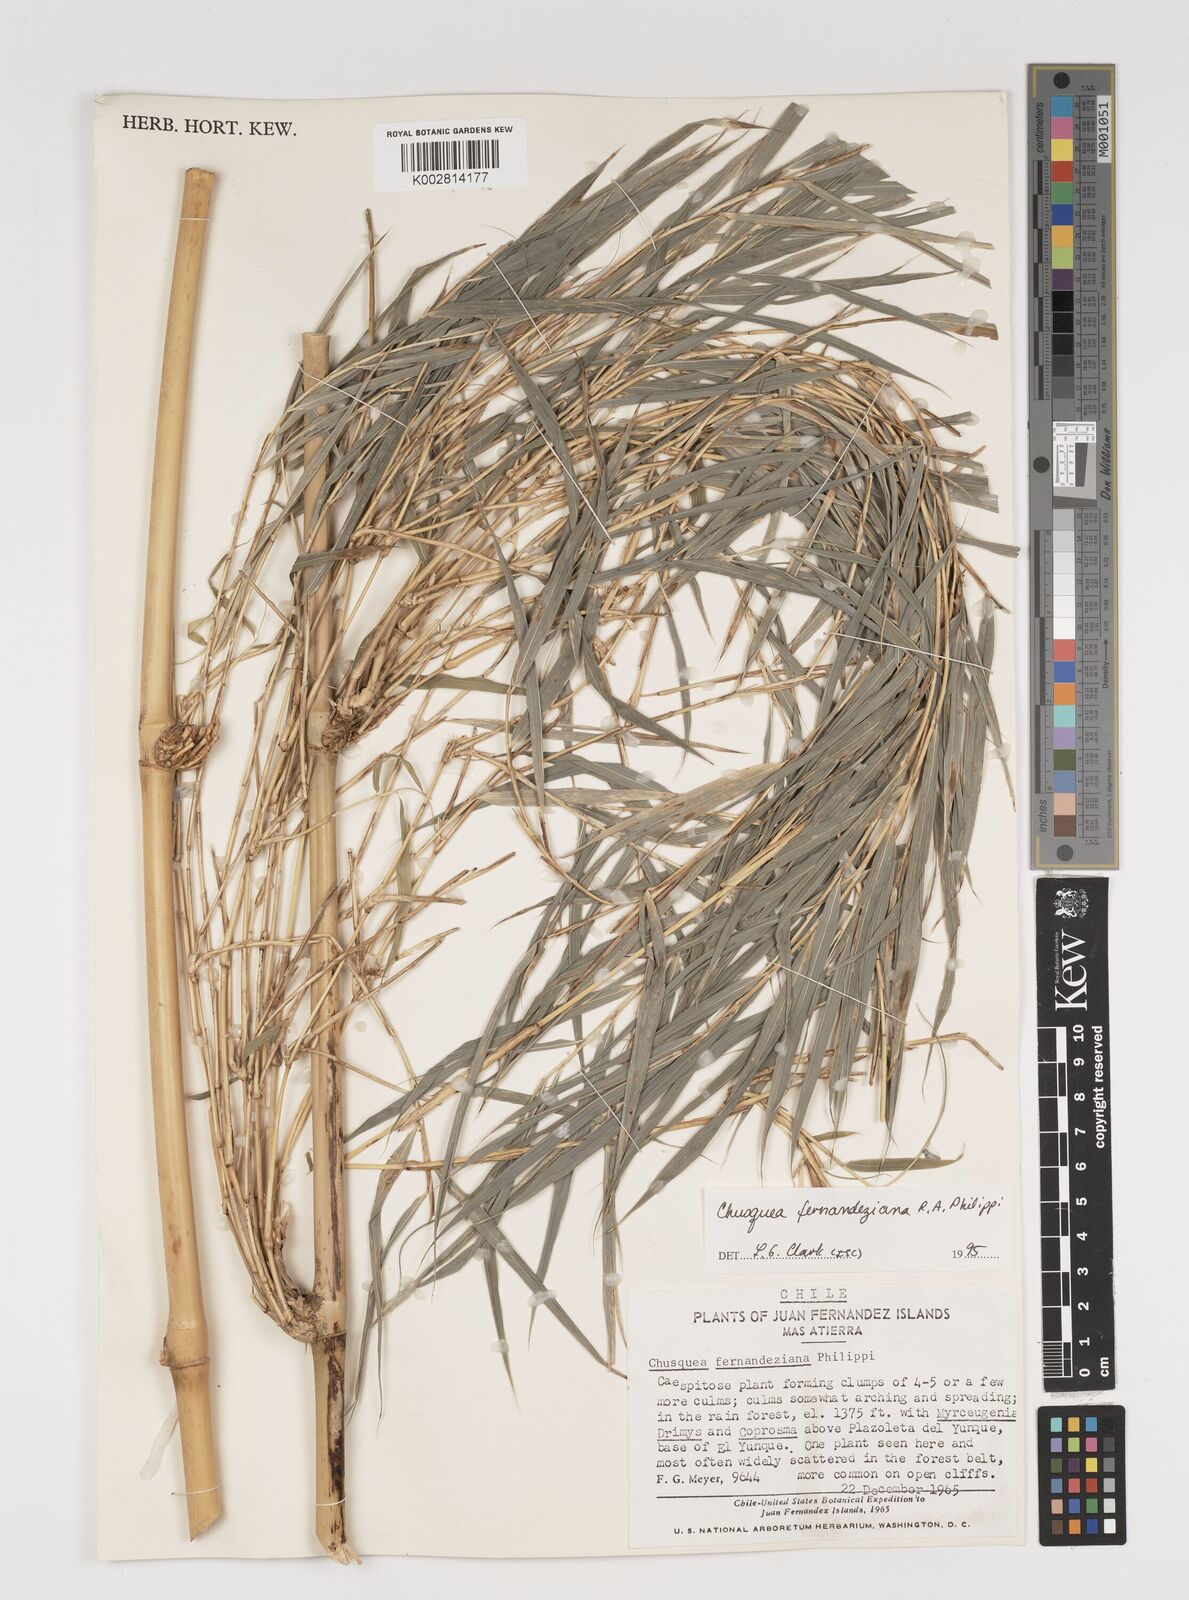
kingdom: Plantae
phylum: Tracheophyta
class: Liliopsida
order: Poales
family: Poaceae
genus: Chusquea
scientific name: Chusquea ligulata
